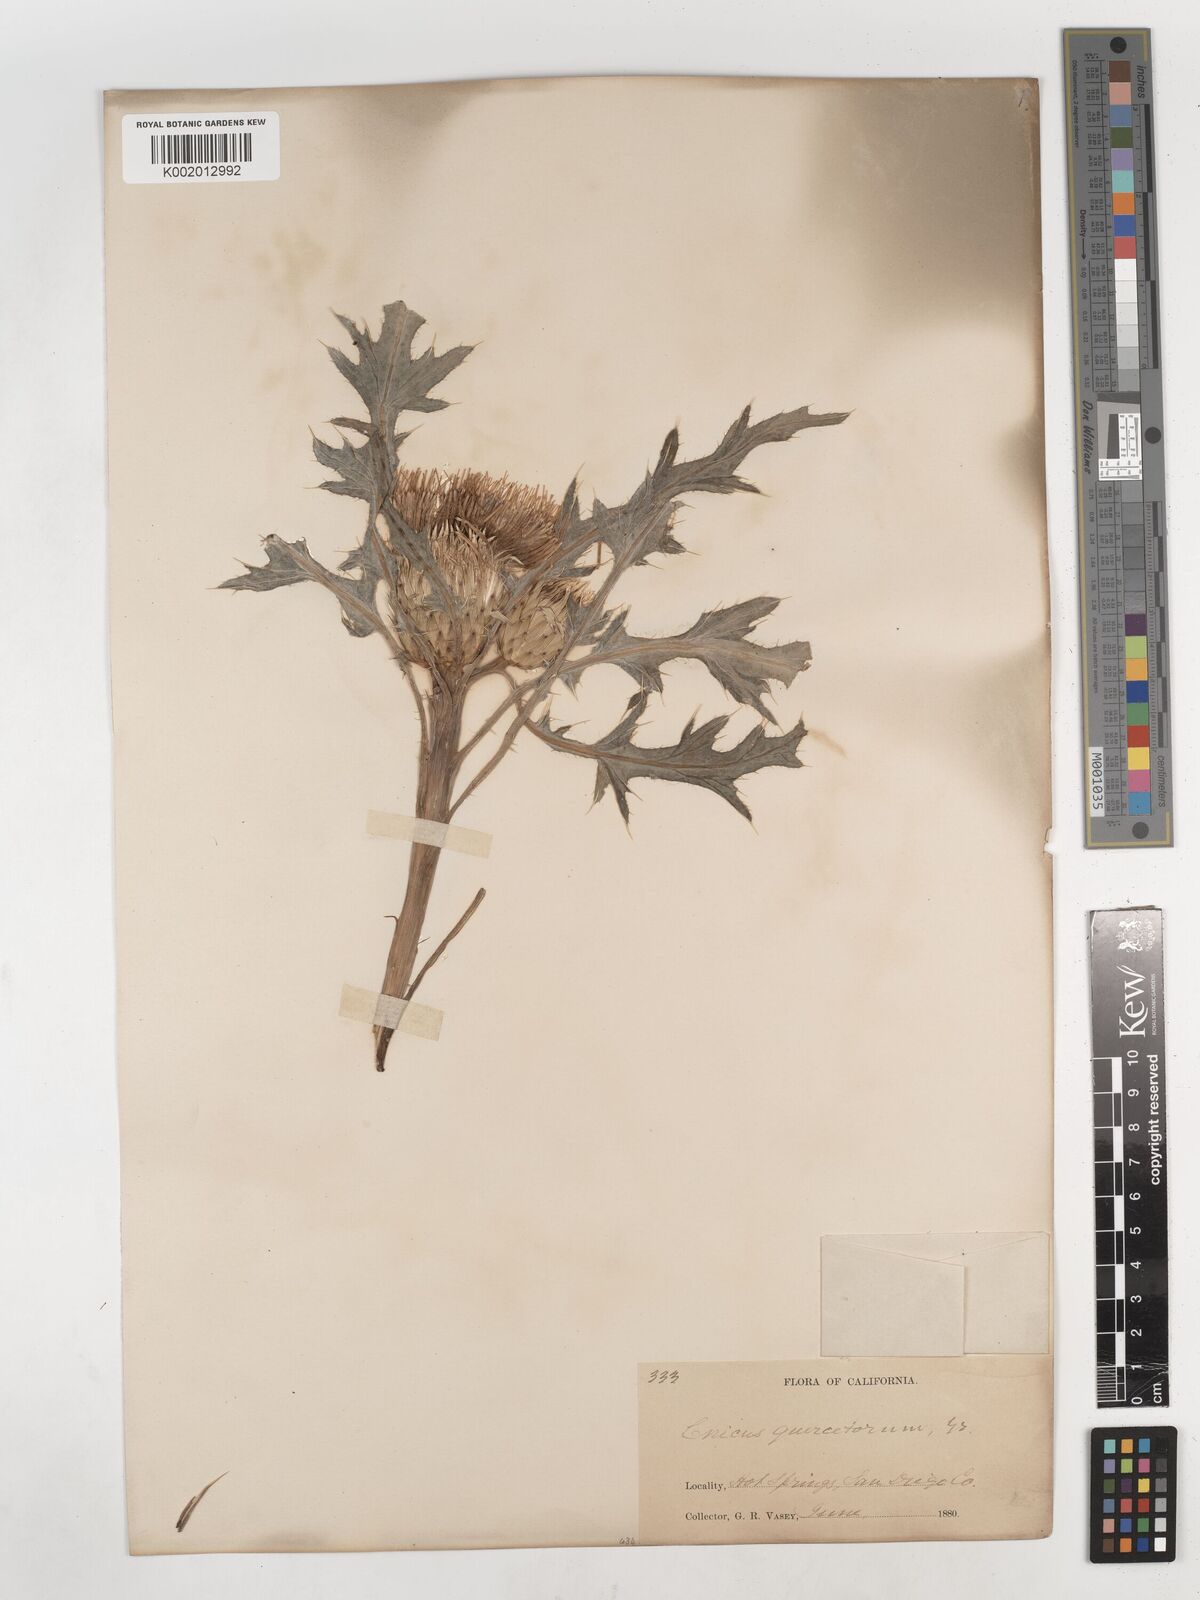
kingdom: Plantae
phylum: Tracheophyta
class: Magnoliopsida
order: Asterales
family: Asteraceae
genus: Cirsium
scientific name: Cirsium quercetorum
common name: Alameda county thistle
